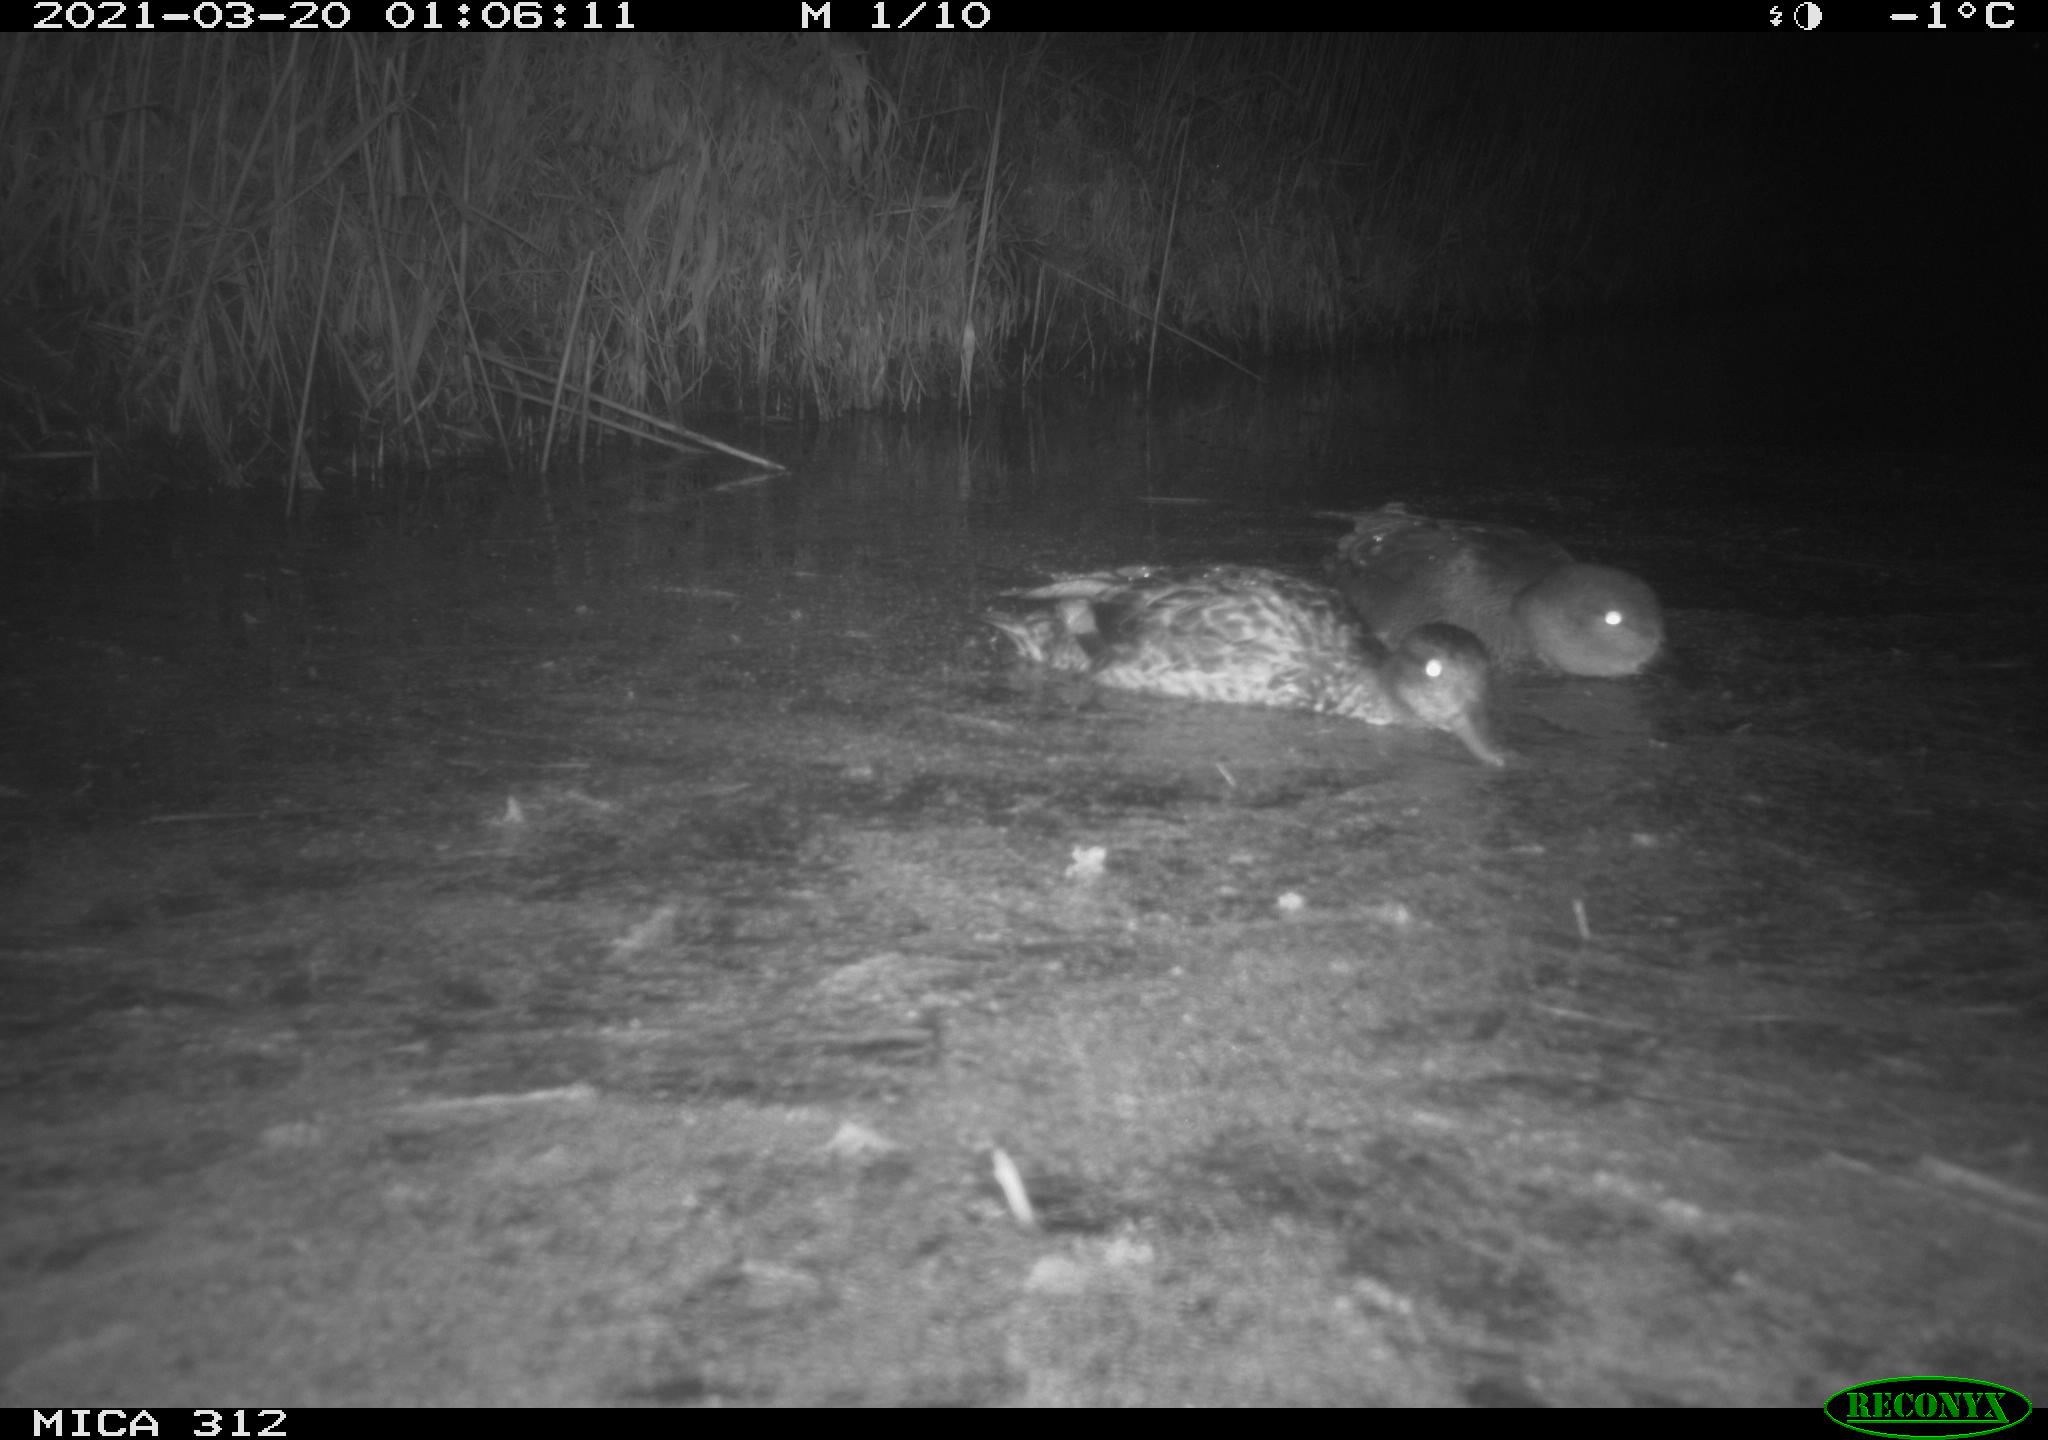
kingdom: Animalia
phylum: Chordata
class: Aves
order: Anseriformes
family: Anatidae
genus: Mareca
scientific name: Mareca strepera
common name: Gadwall
